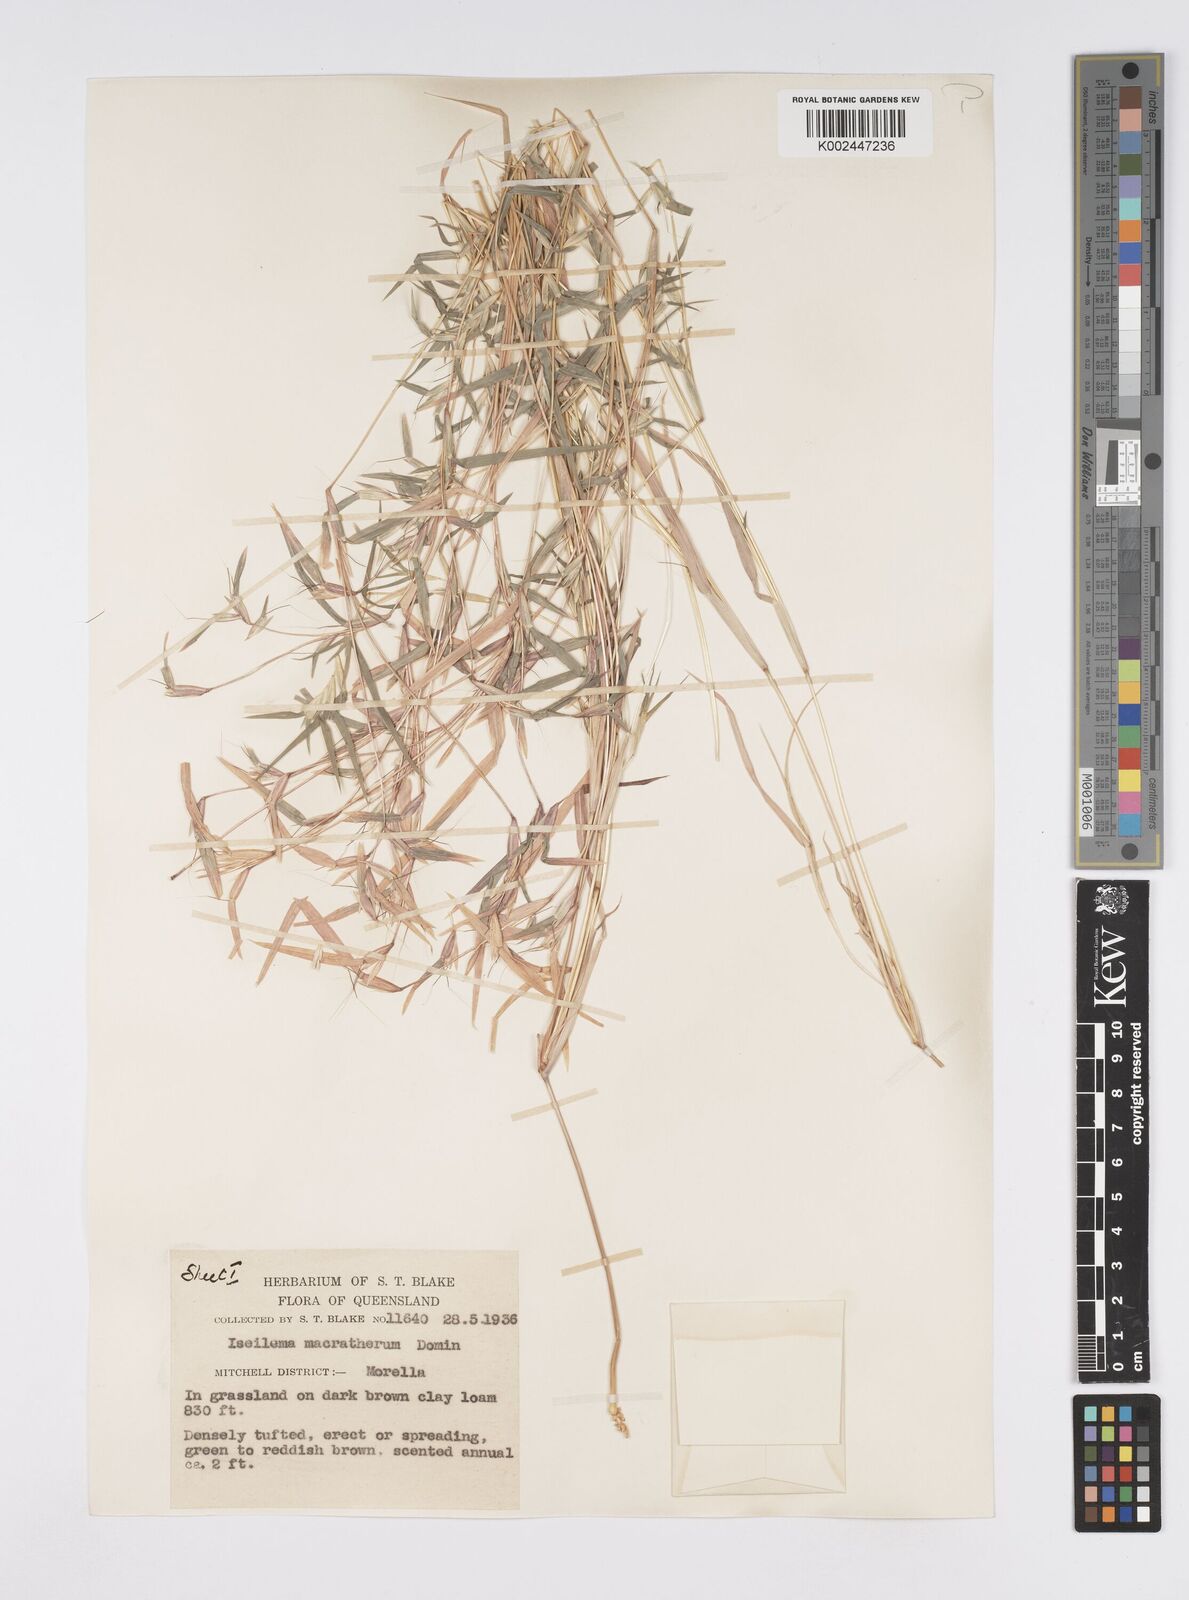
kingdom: Plantae
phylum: Tracheophyta
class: Liliopsida
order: Poales
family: Poaceae
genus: Iseilema
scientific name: Iseilema macratherum
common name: Bull flinders grass
